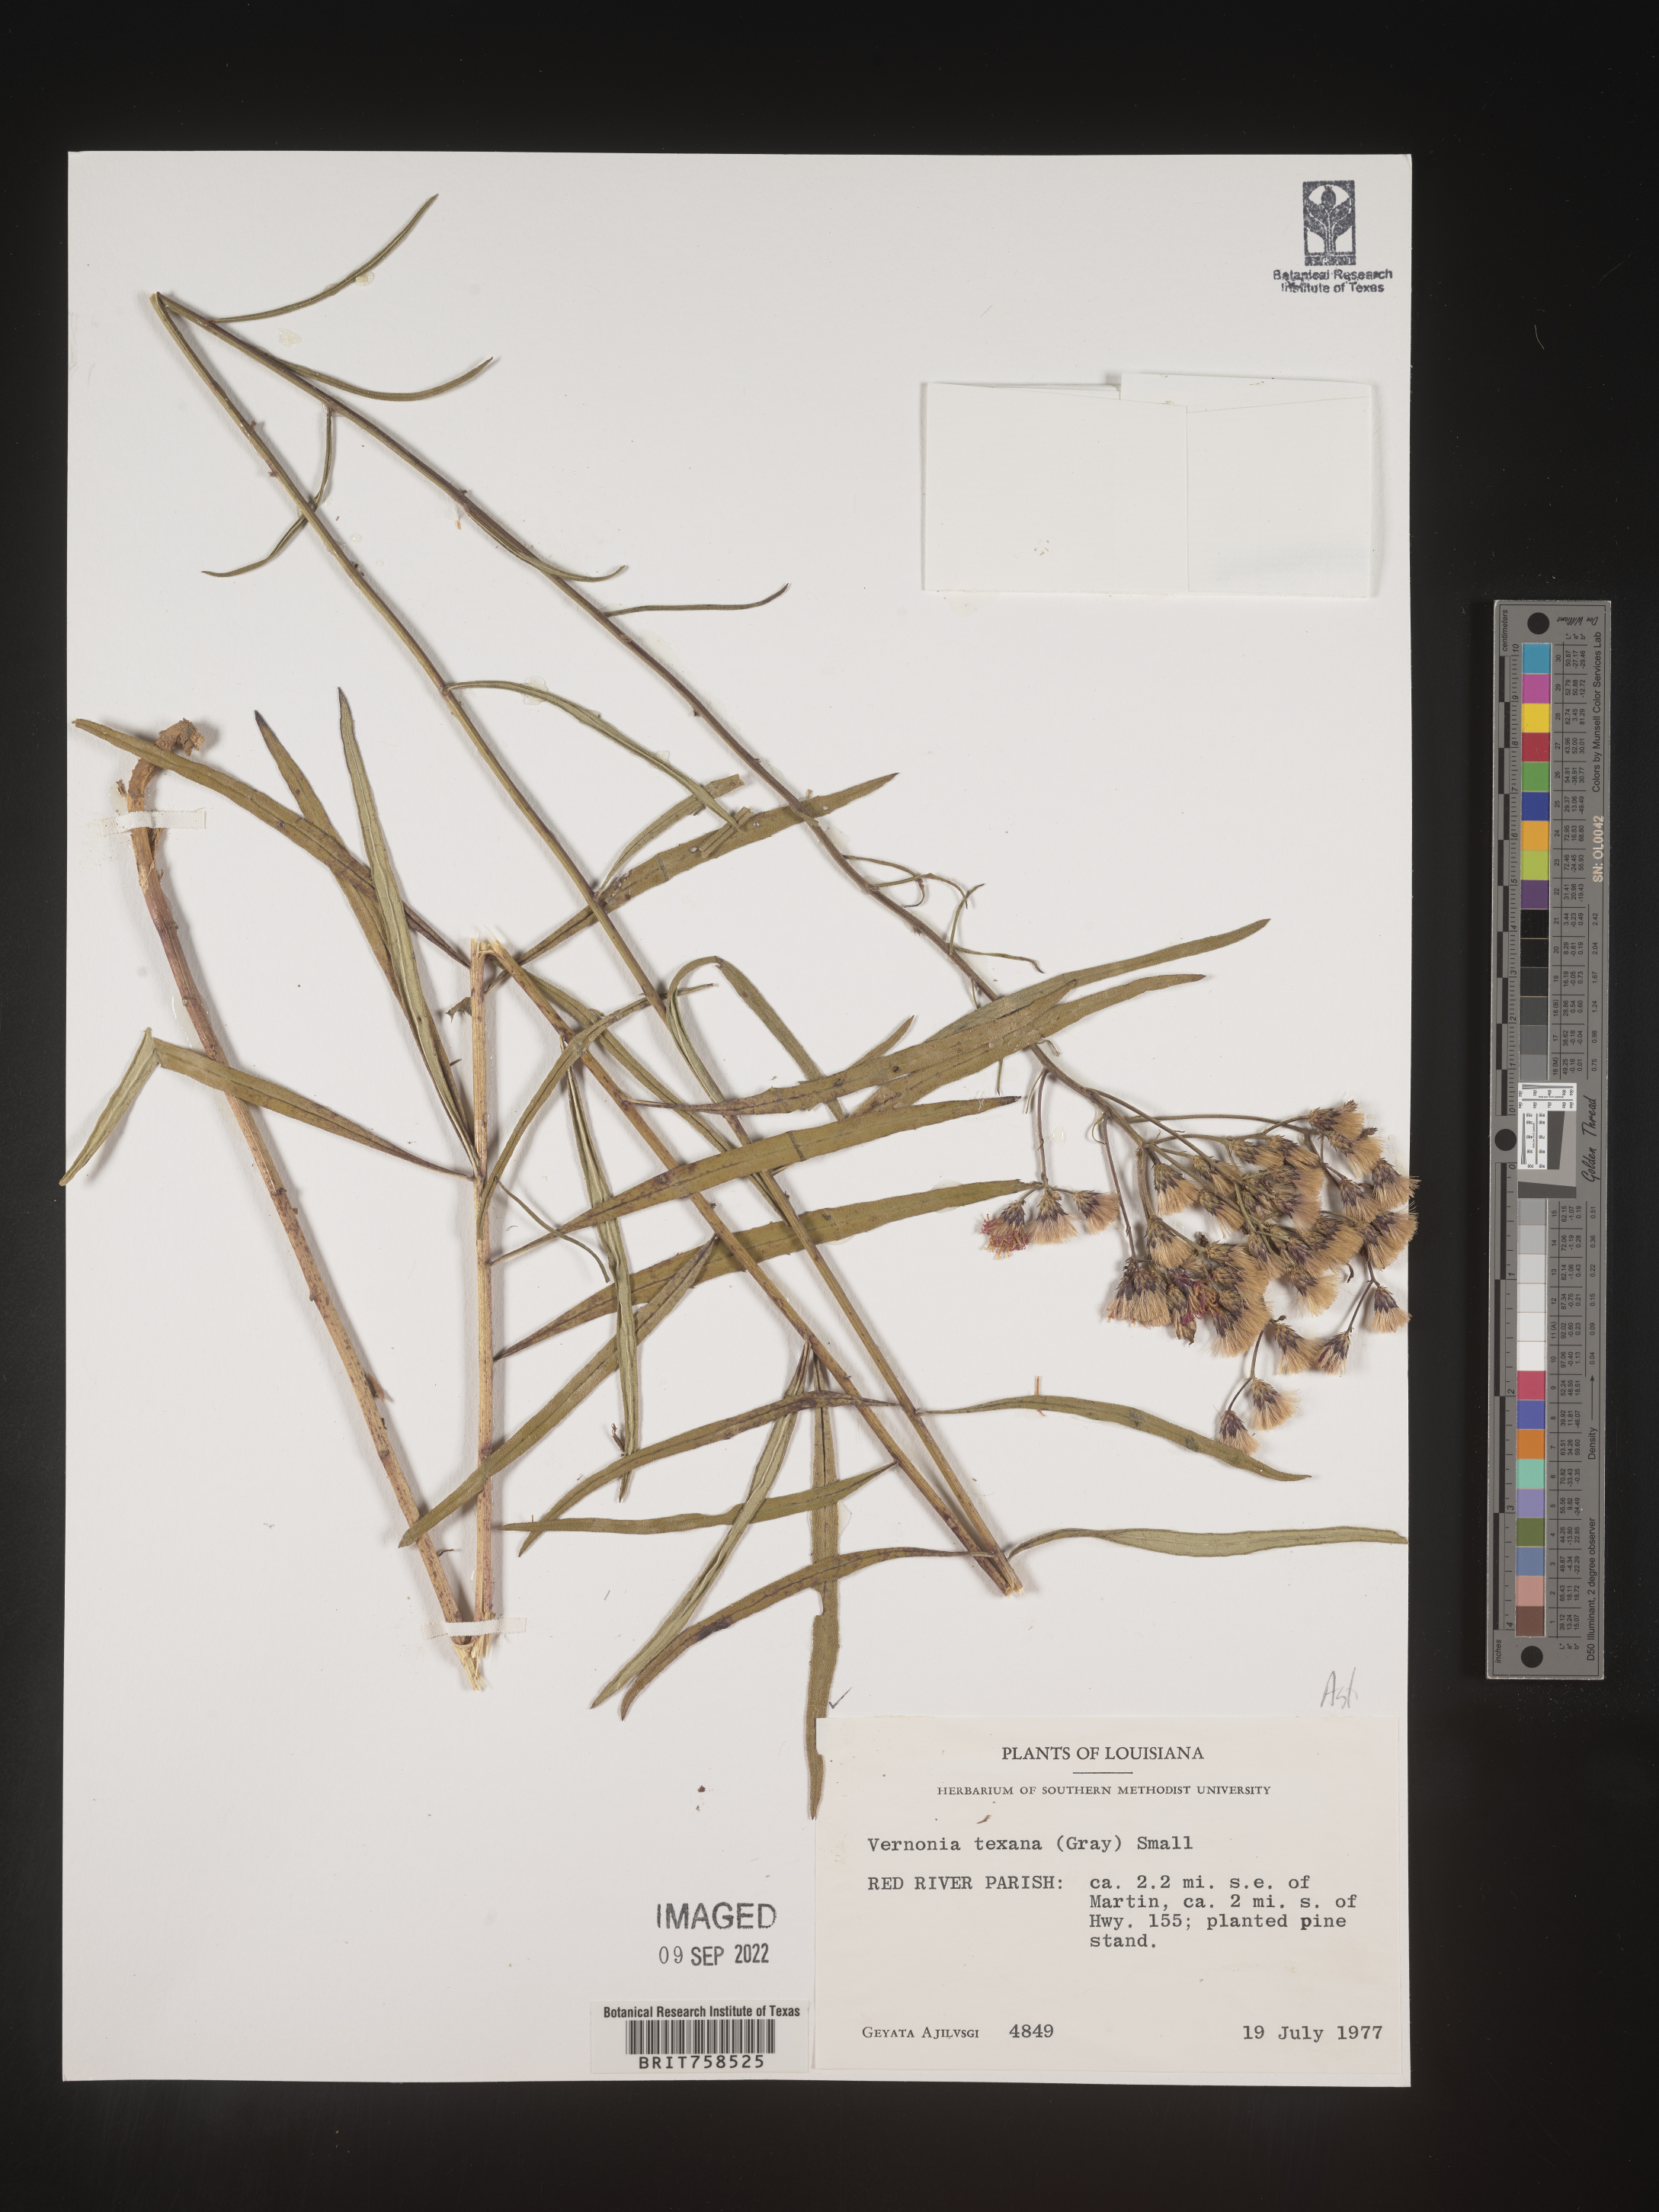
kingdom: Plantae
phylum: Tracheophyta
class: Magnoliopsida
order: Asterales
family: Asteraceae
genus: Vernonia
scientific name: Vernonia texana
